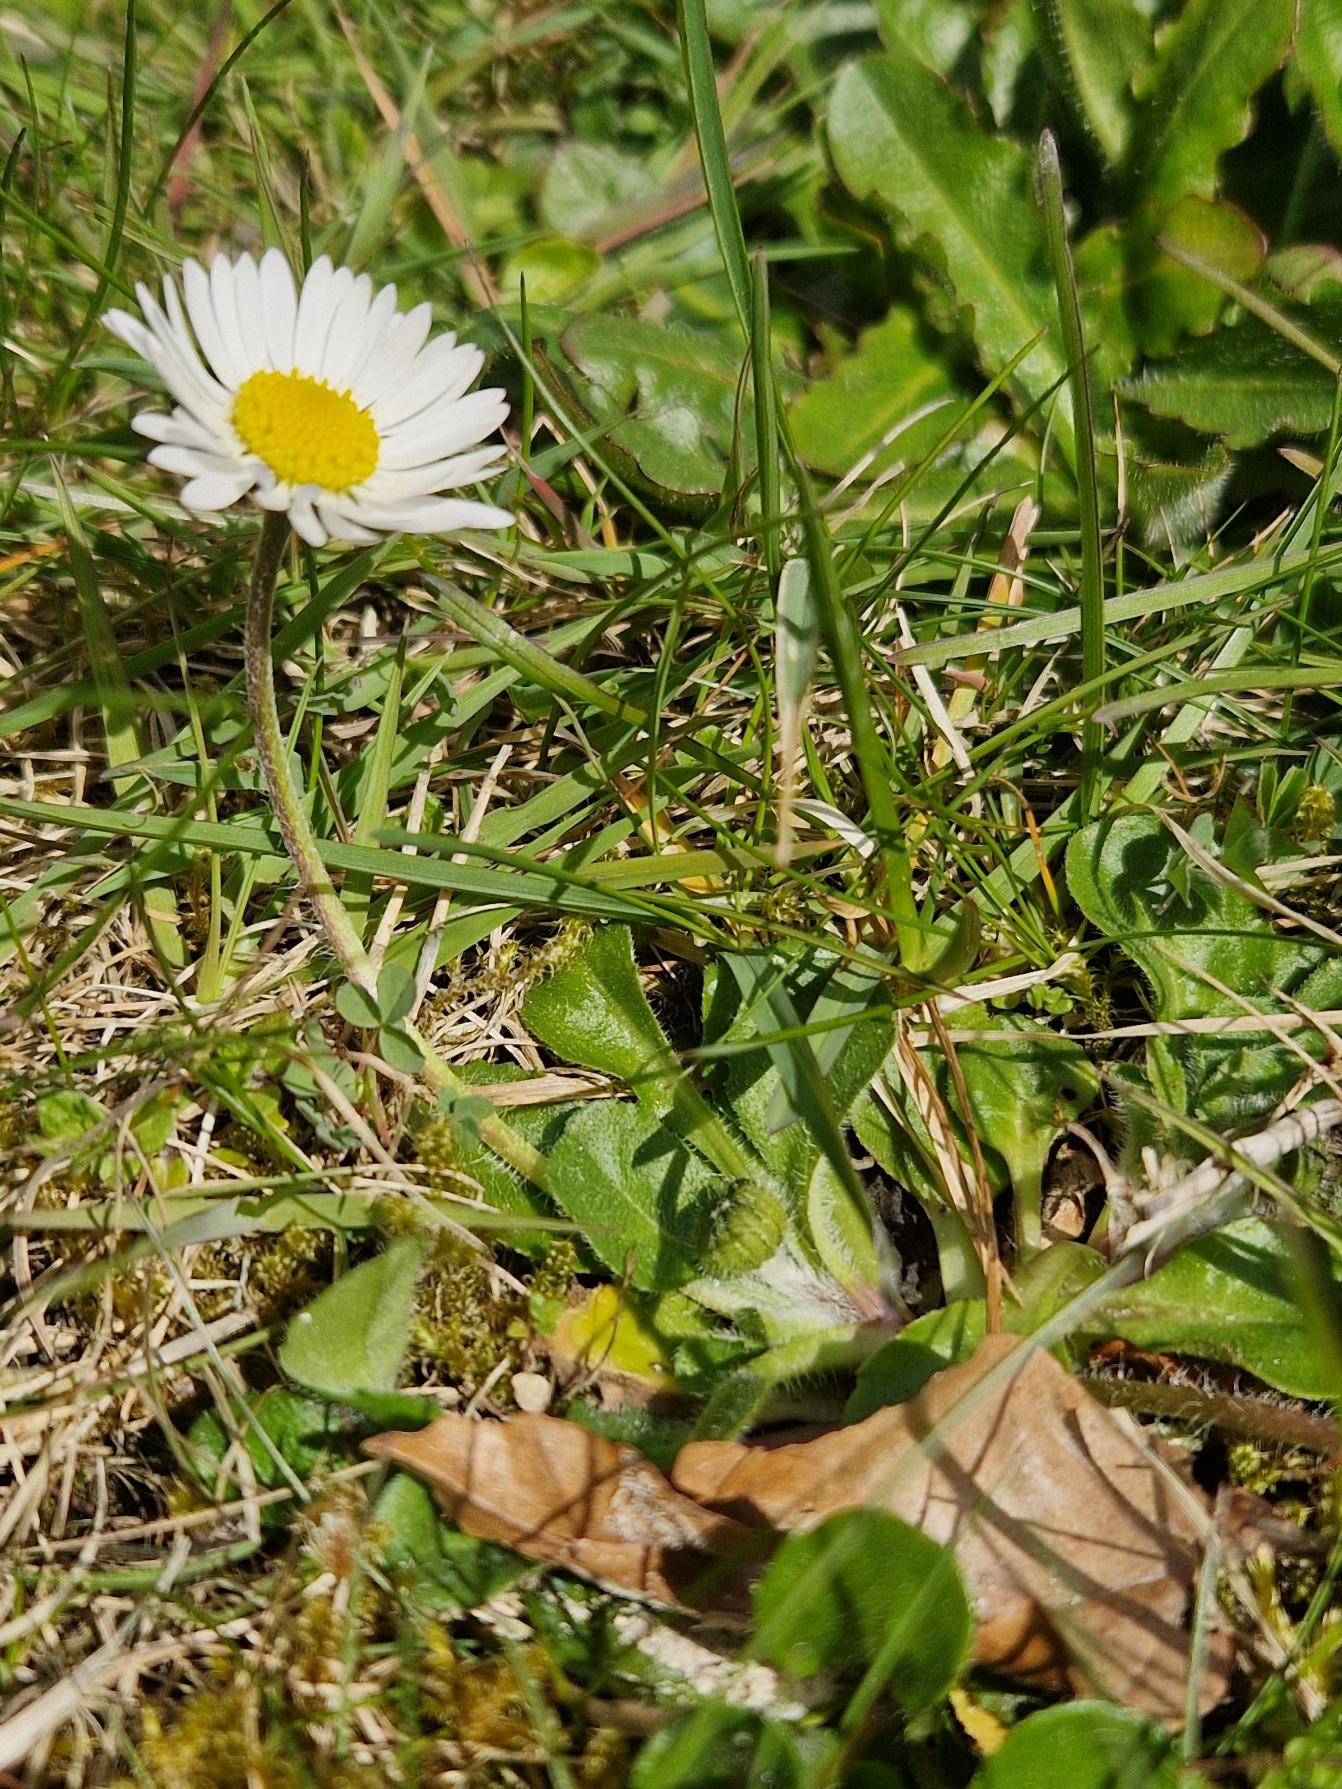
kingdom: Plantae
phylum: Tracheophyta
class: Magnoliopsida
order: Asterales
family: Asteraceae
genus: Bellis
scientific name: Bellis perennis
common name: Tusindfryd
